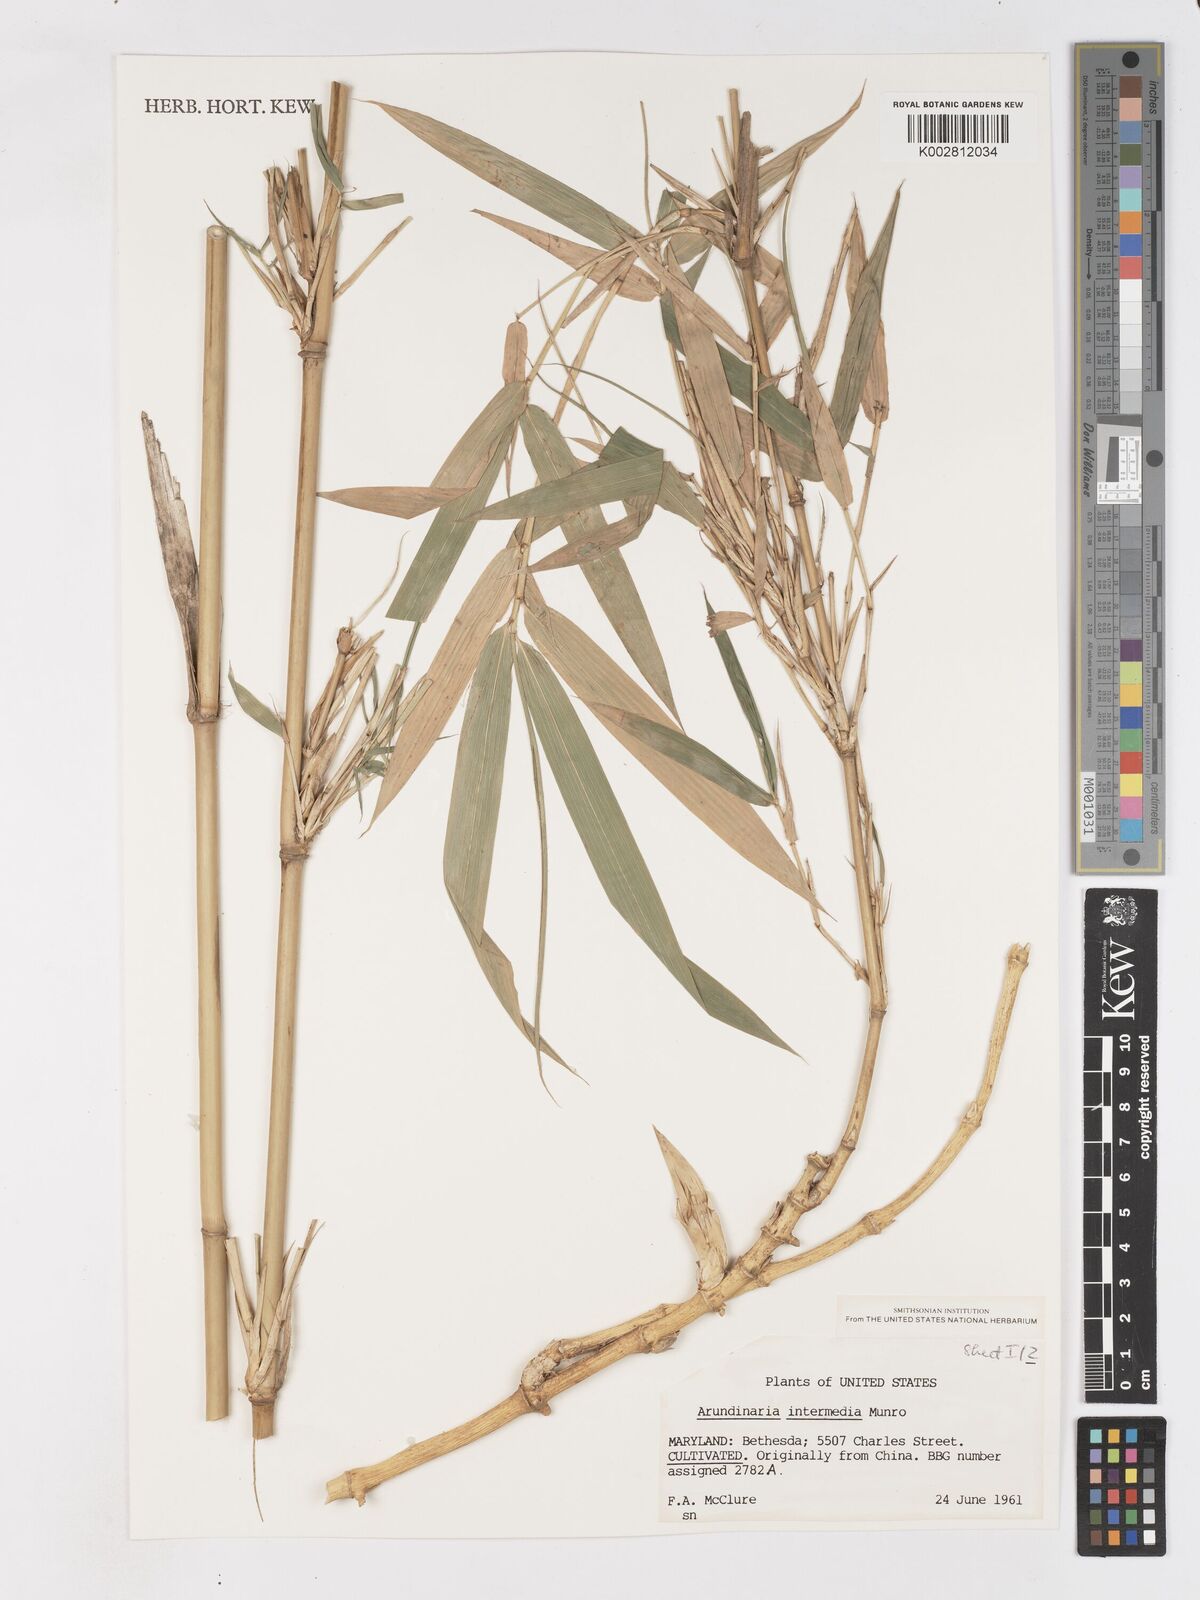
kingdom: Plantae
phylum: Tracheophyta
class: Liliopsida
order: Poales
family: Poaceae
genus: Drepanostachyum
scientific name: Drepanostachyum intermedium
